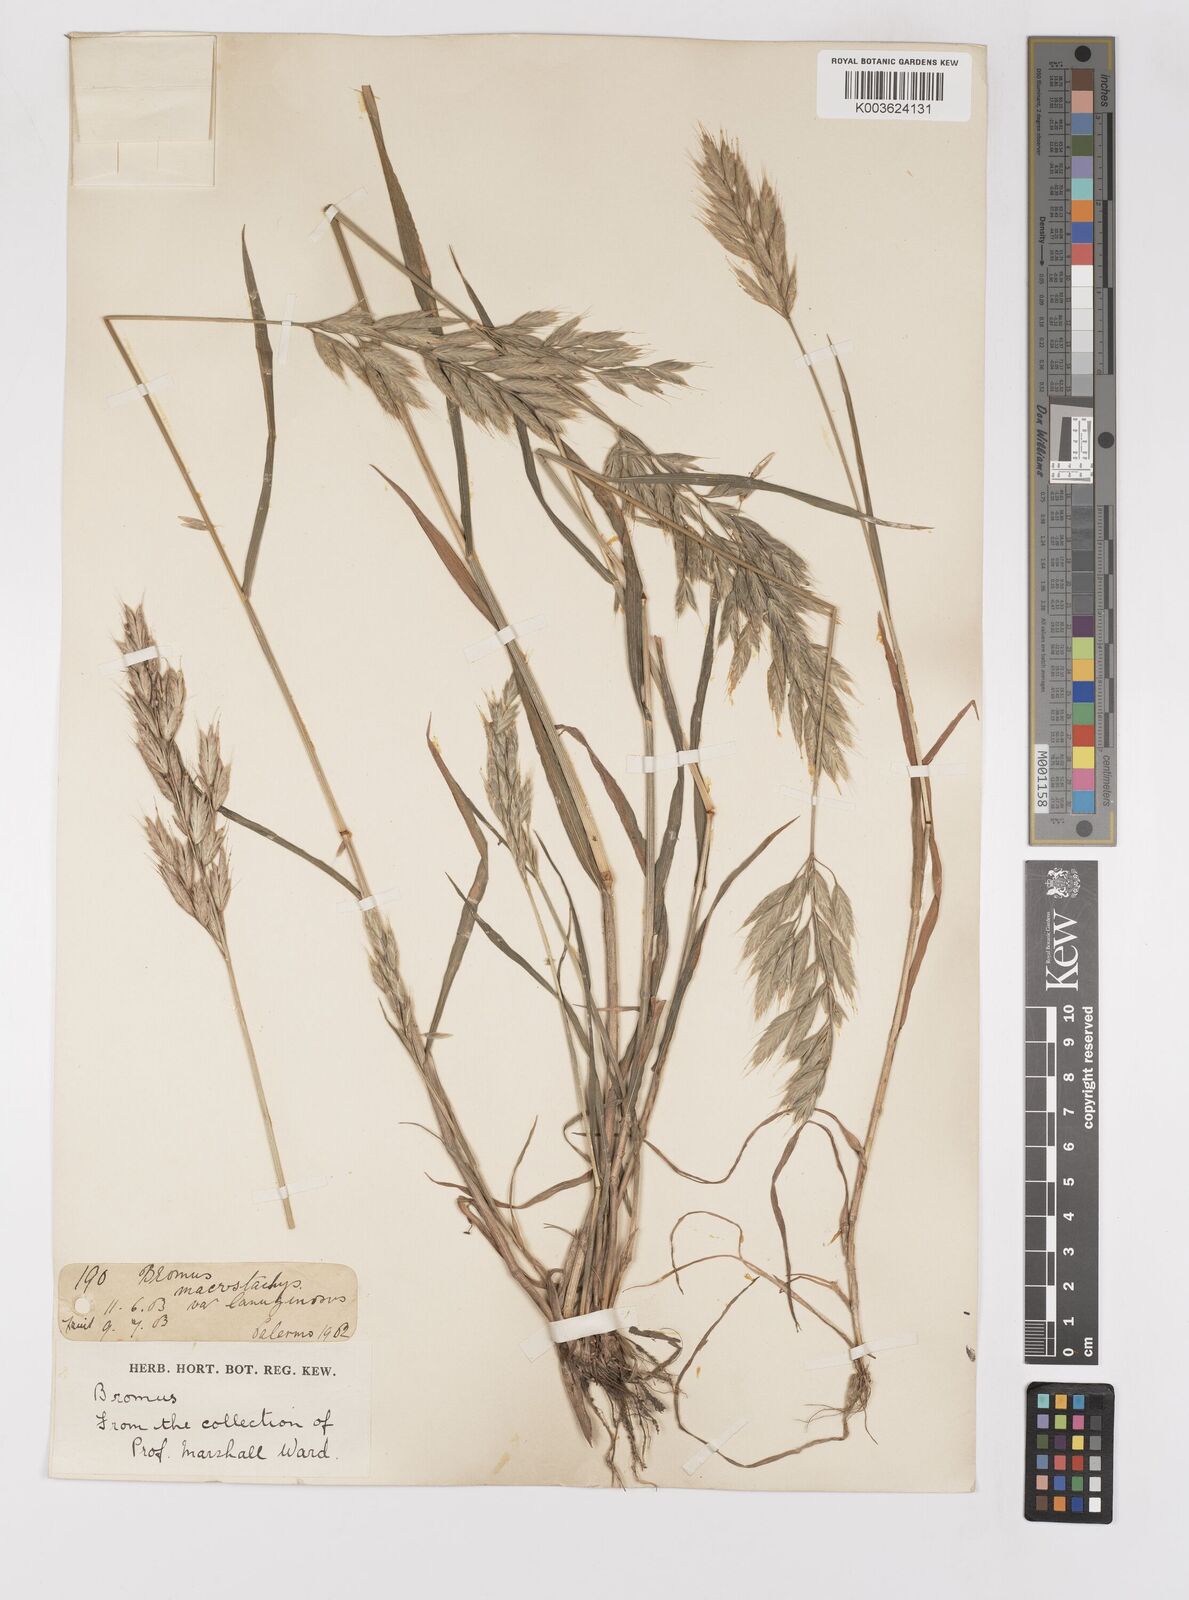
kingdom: Plantae
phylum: Tracheophyta
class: Liliopsida
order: Poales
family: Poaceae
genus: Bromus
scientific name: Bromus hordeaceus
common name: Soft brome
